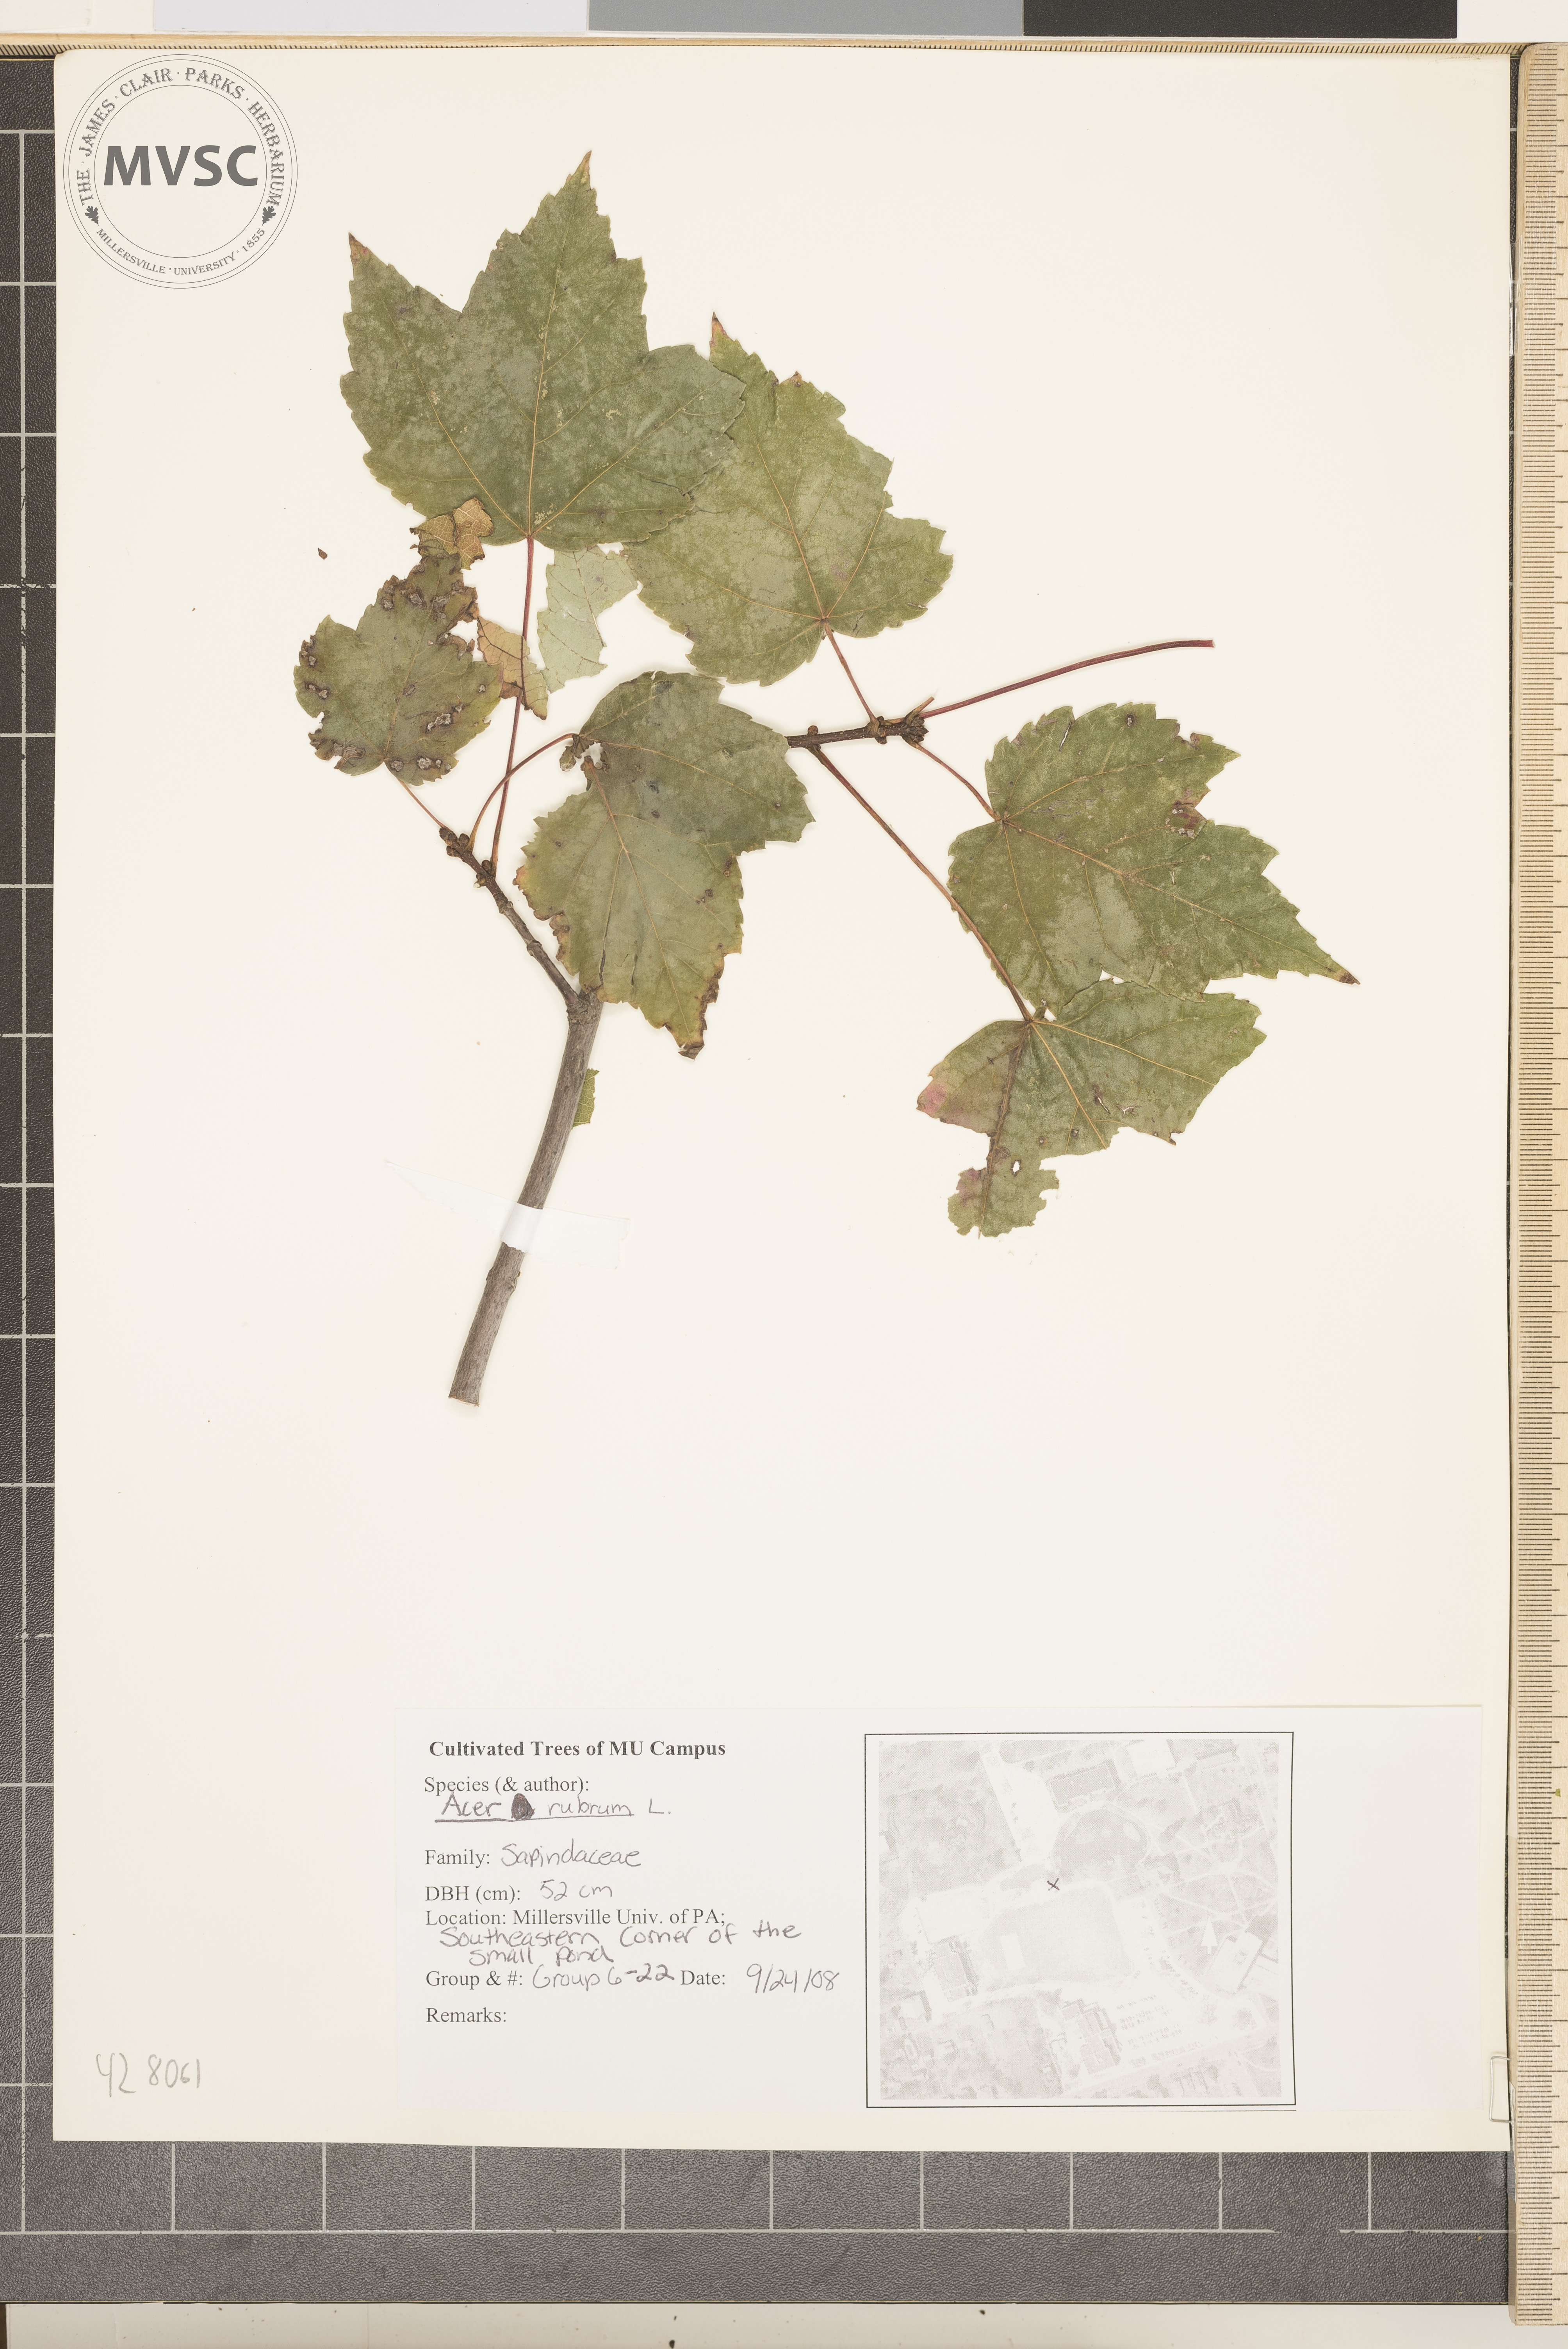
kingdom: Plantae
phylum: Tracheophyta
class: Magnoliopsida
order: Sapindales
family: Sapindaceae
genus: Acer
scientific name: Acer rubrum
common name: Red maple
